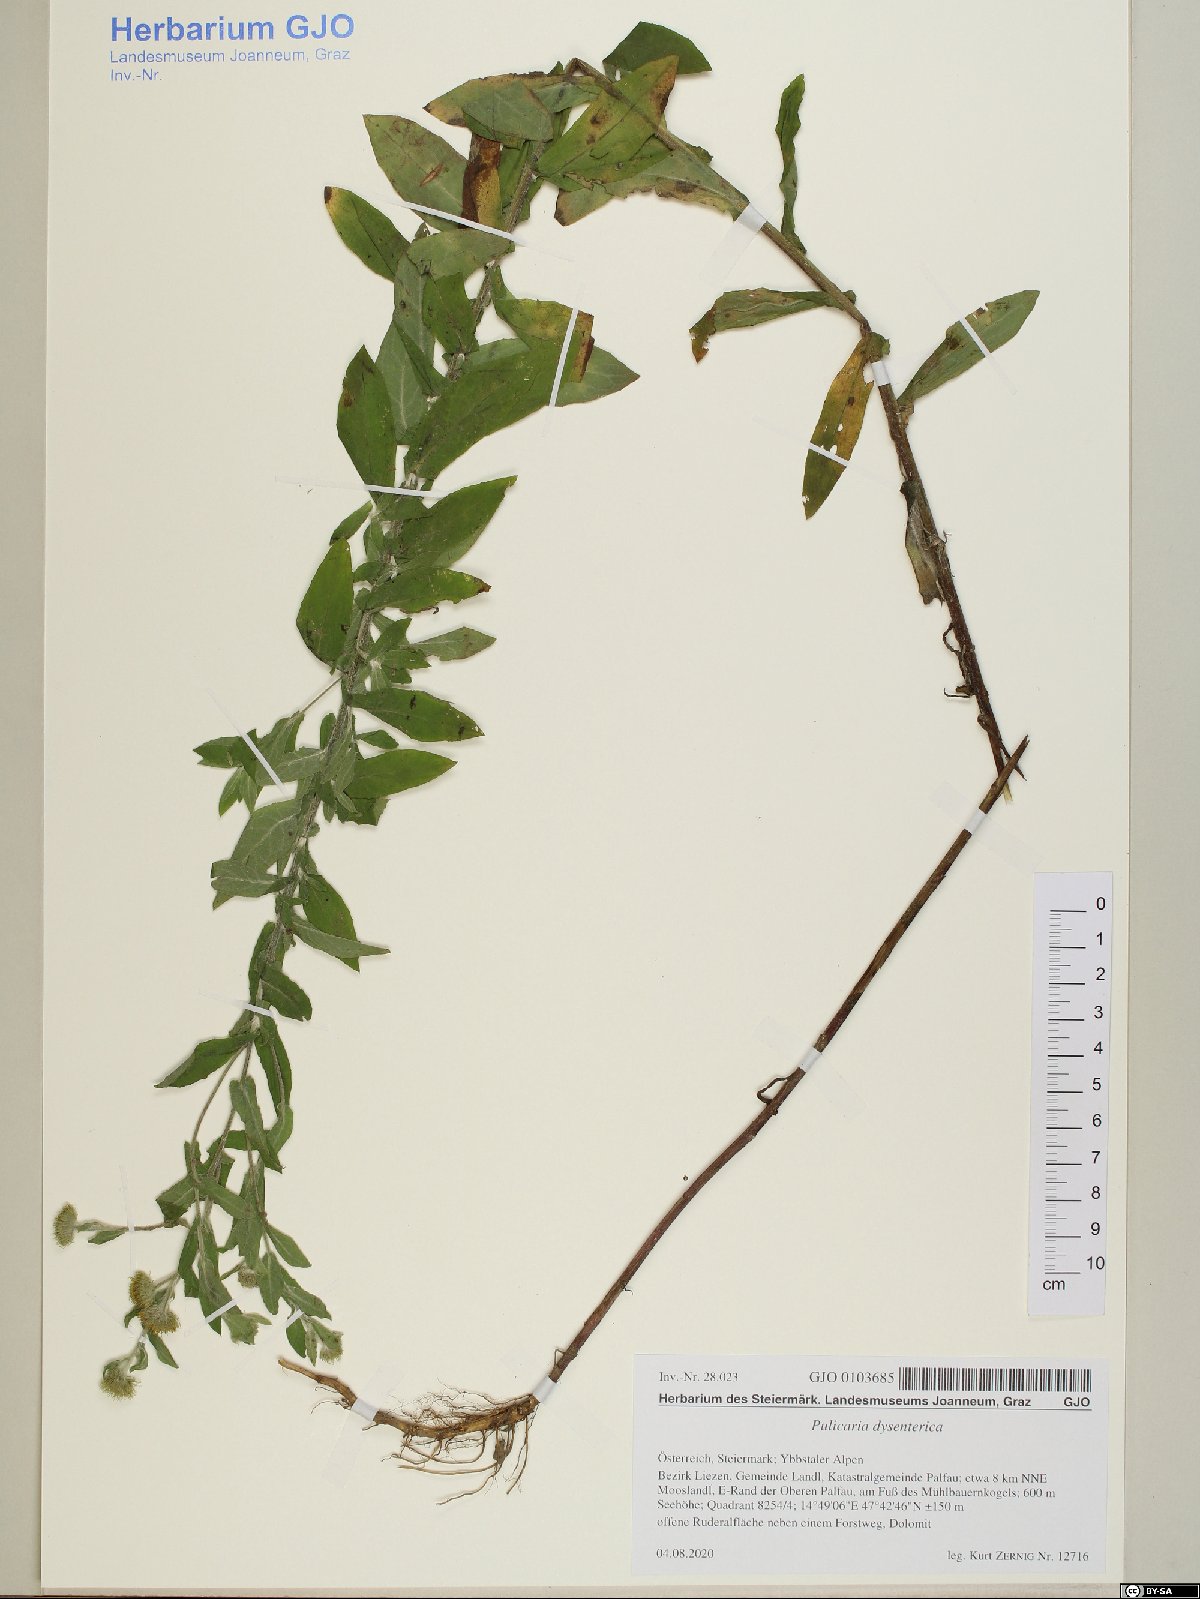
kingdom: Plantae
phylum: Tracheophyta
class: Magnoliopsida
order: Asterales
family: Asteraceae
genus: Pulicaria
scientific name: Pulicaria dysenterica
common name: Common fleabane
